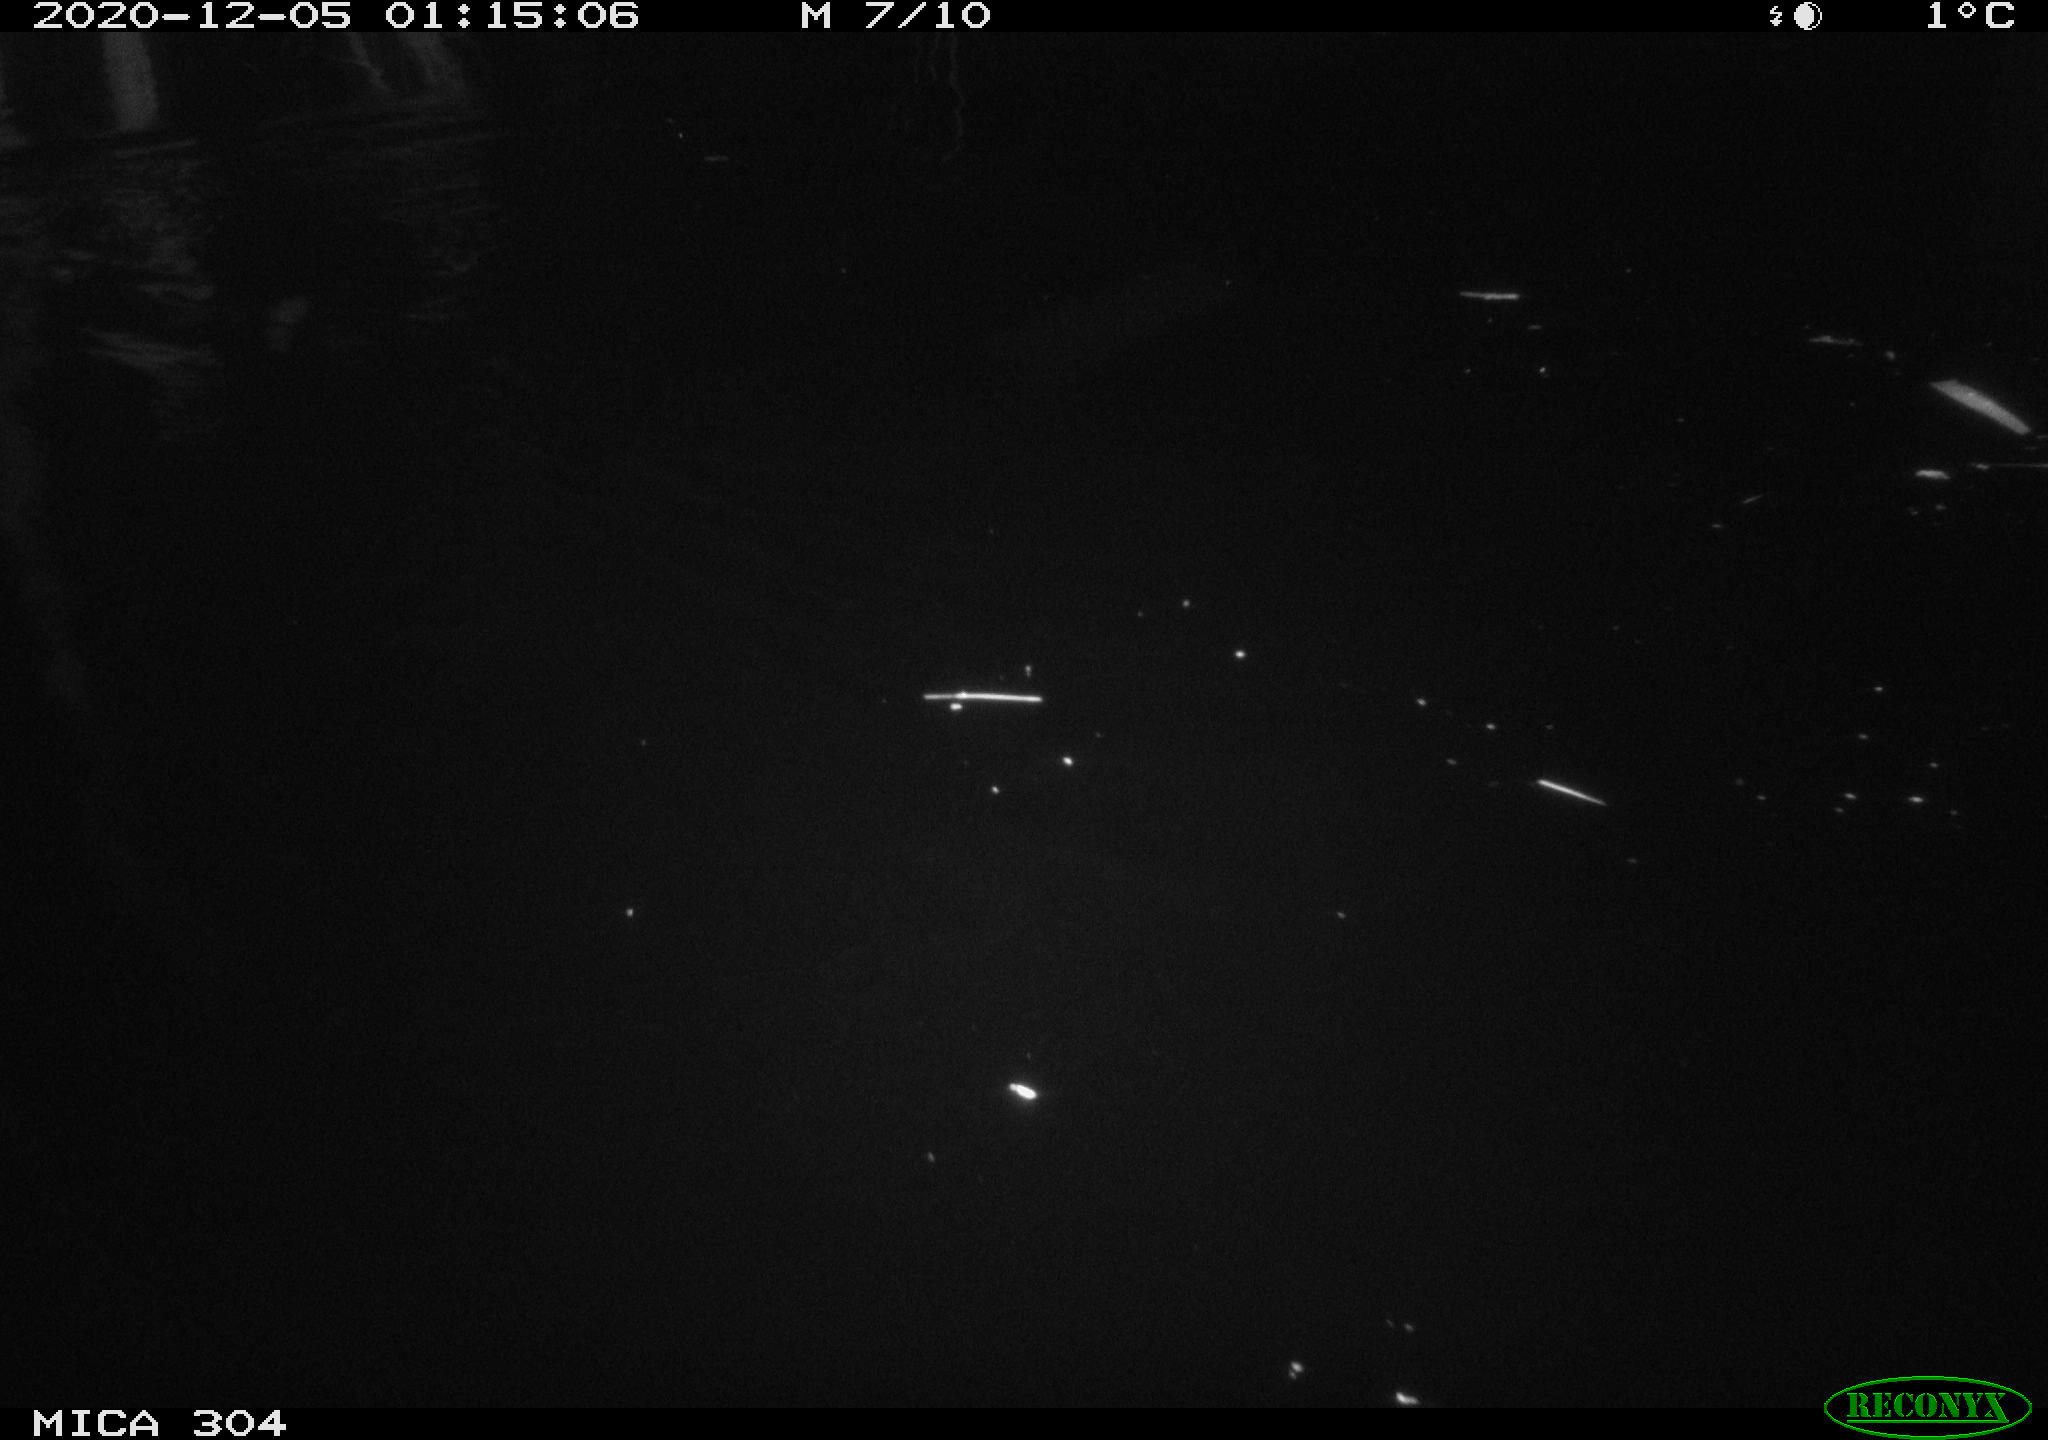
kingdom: Animalia
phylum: Chordata
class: Mammalia
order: Rodentia
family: Muridae
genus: Rattus
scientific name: Rattus norvegicus
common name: Brown rat
